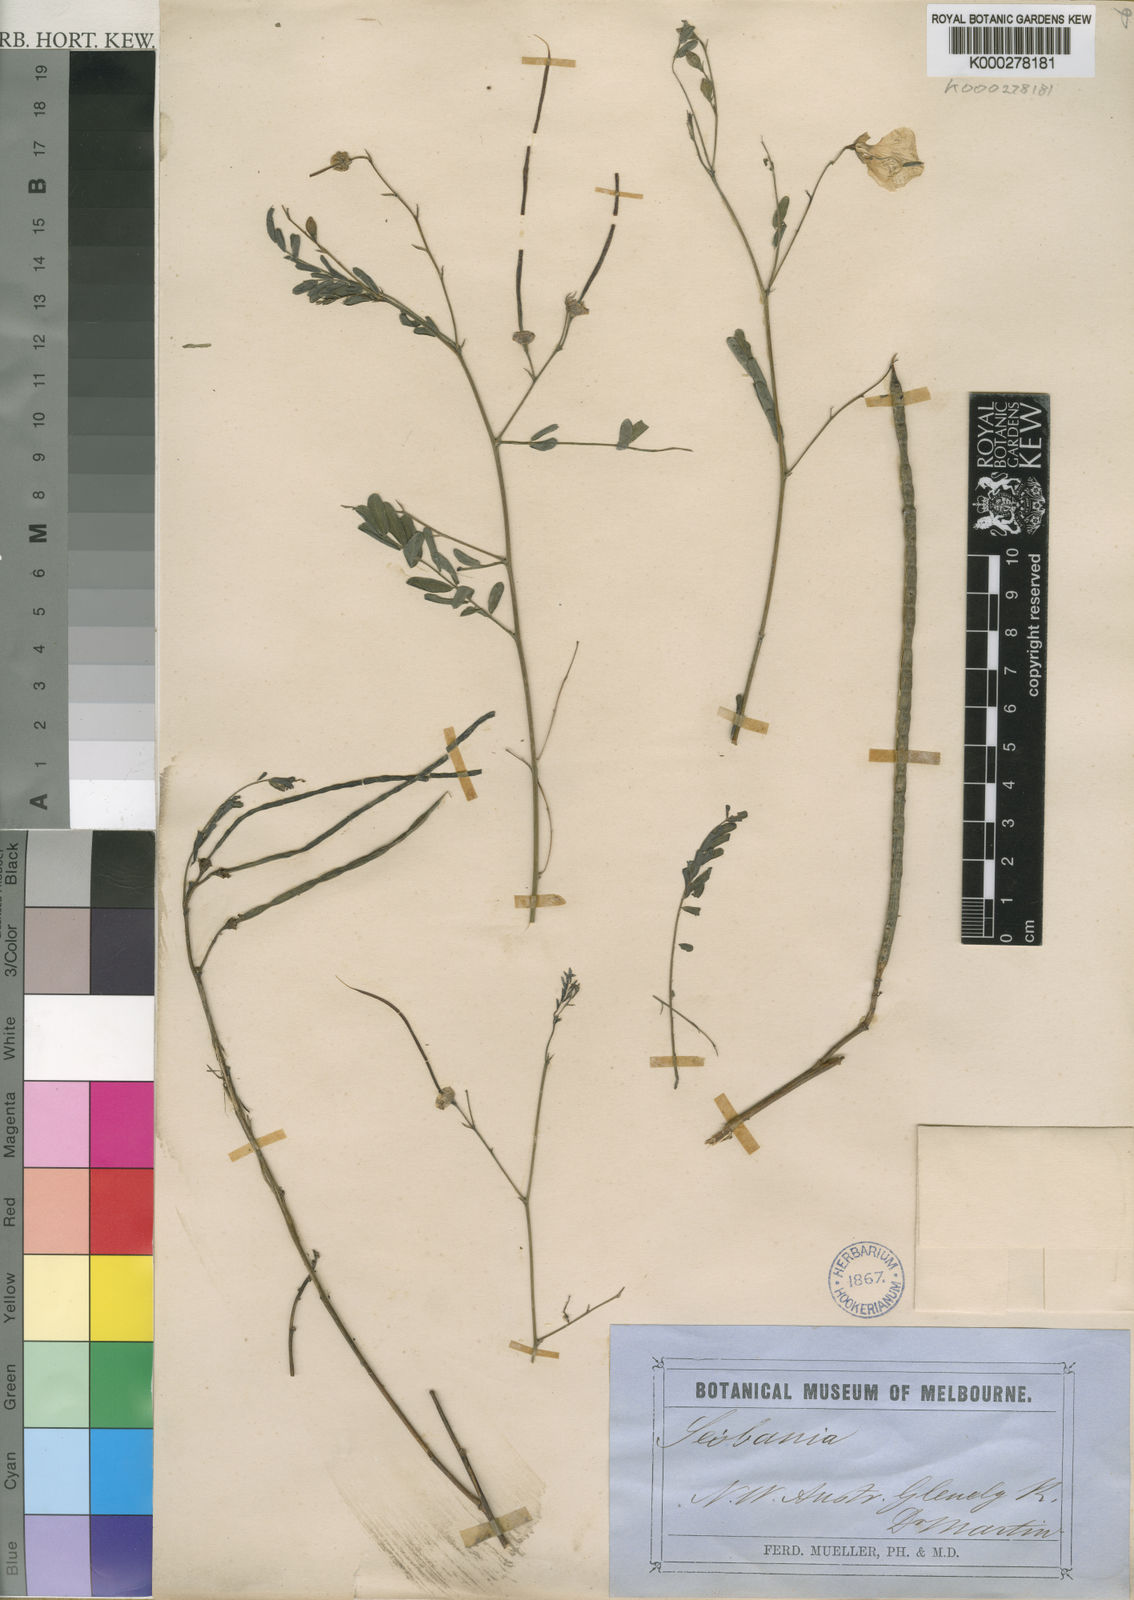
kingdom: Plantae
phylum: Tracheophyta
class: Magnoliopsida
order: Fabales
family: Fabaceae
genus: Sesbania
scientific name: Sesbania
